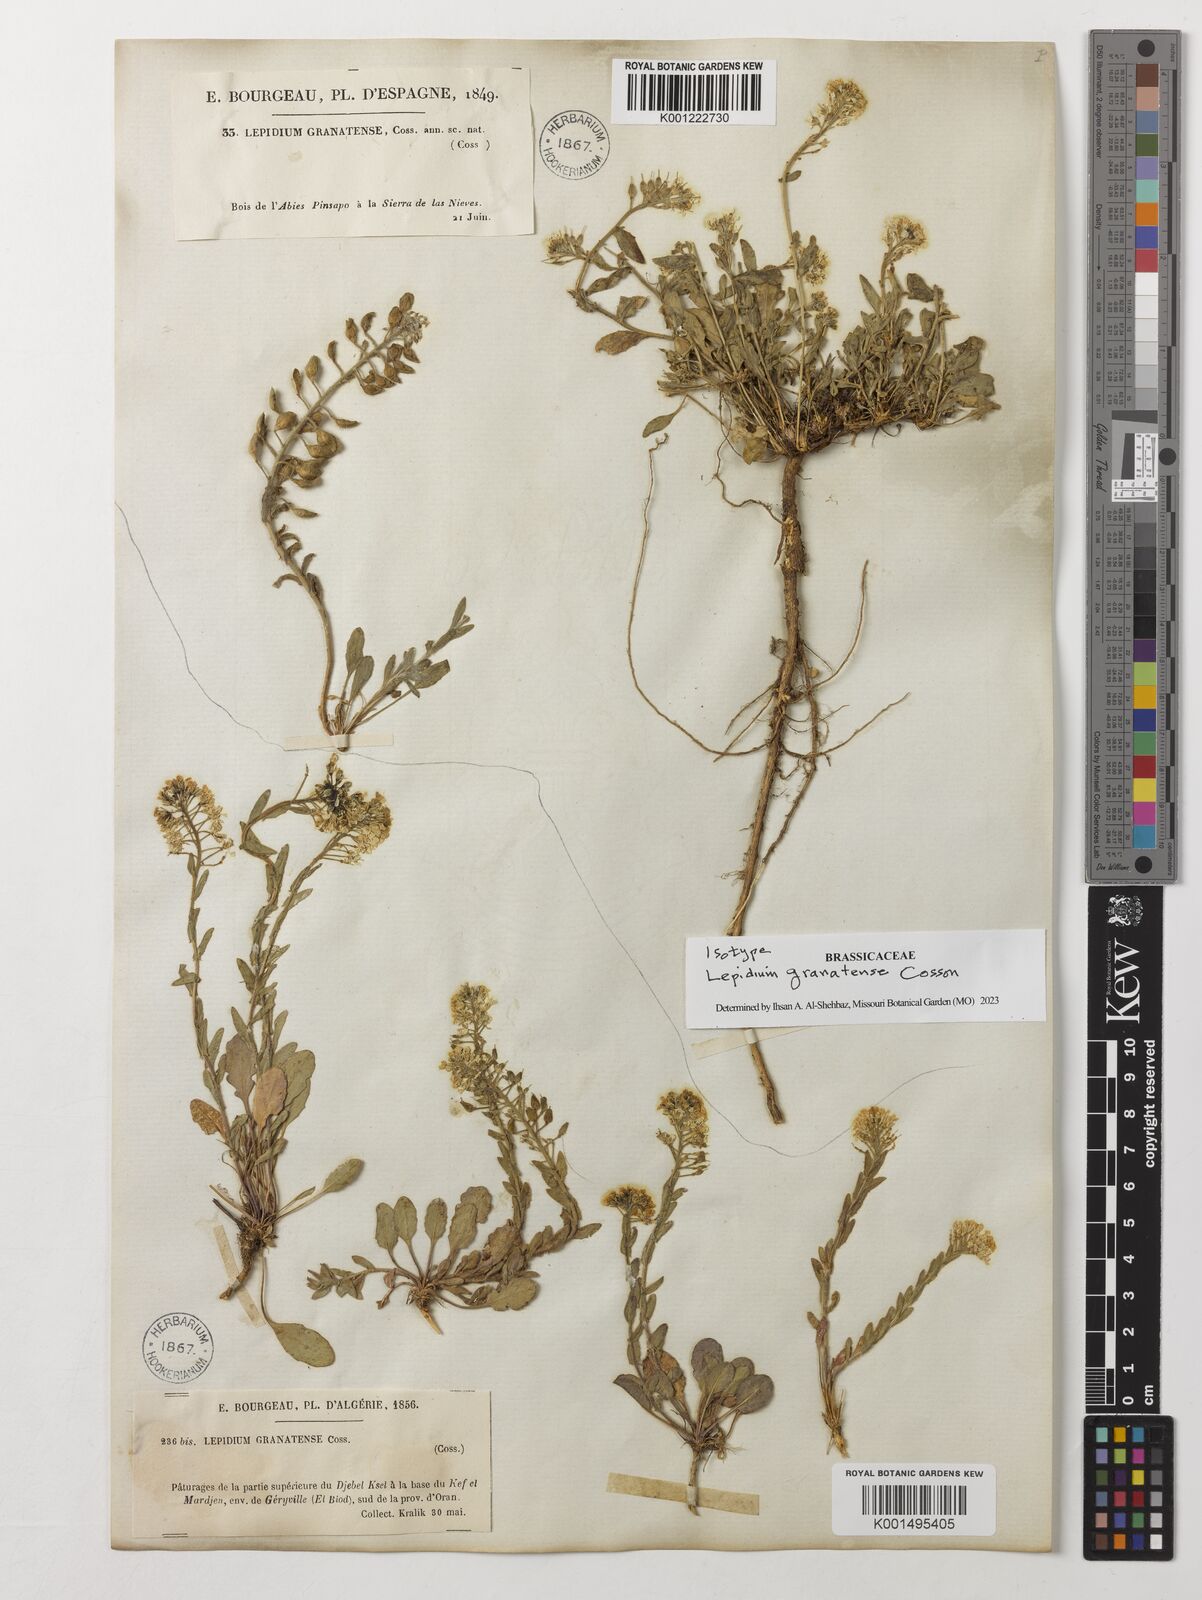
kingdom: Plantae
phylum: Tracheophyta
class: Magnoliopsida
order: Brassicales
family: Brassicaceae
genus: Lepidium
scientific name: Lepidium hirtum
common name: Mediterranean pepperweed
